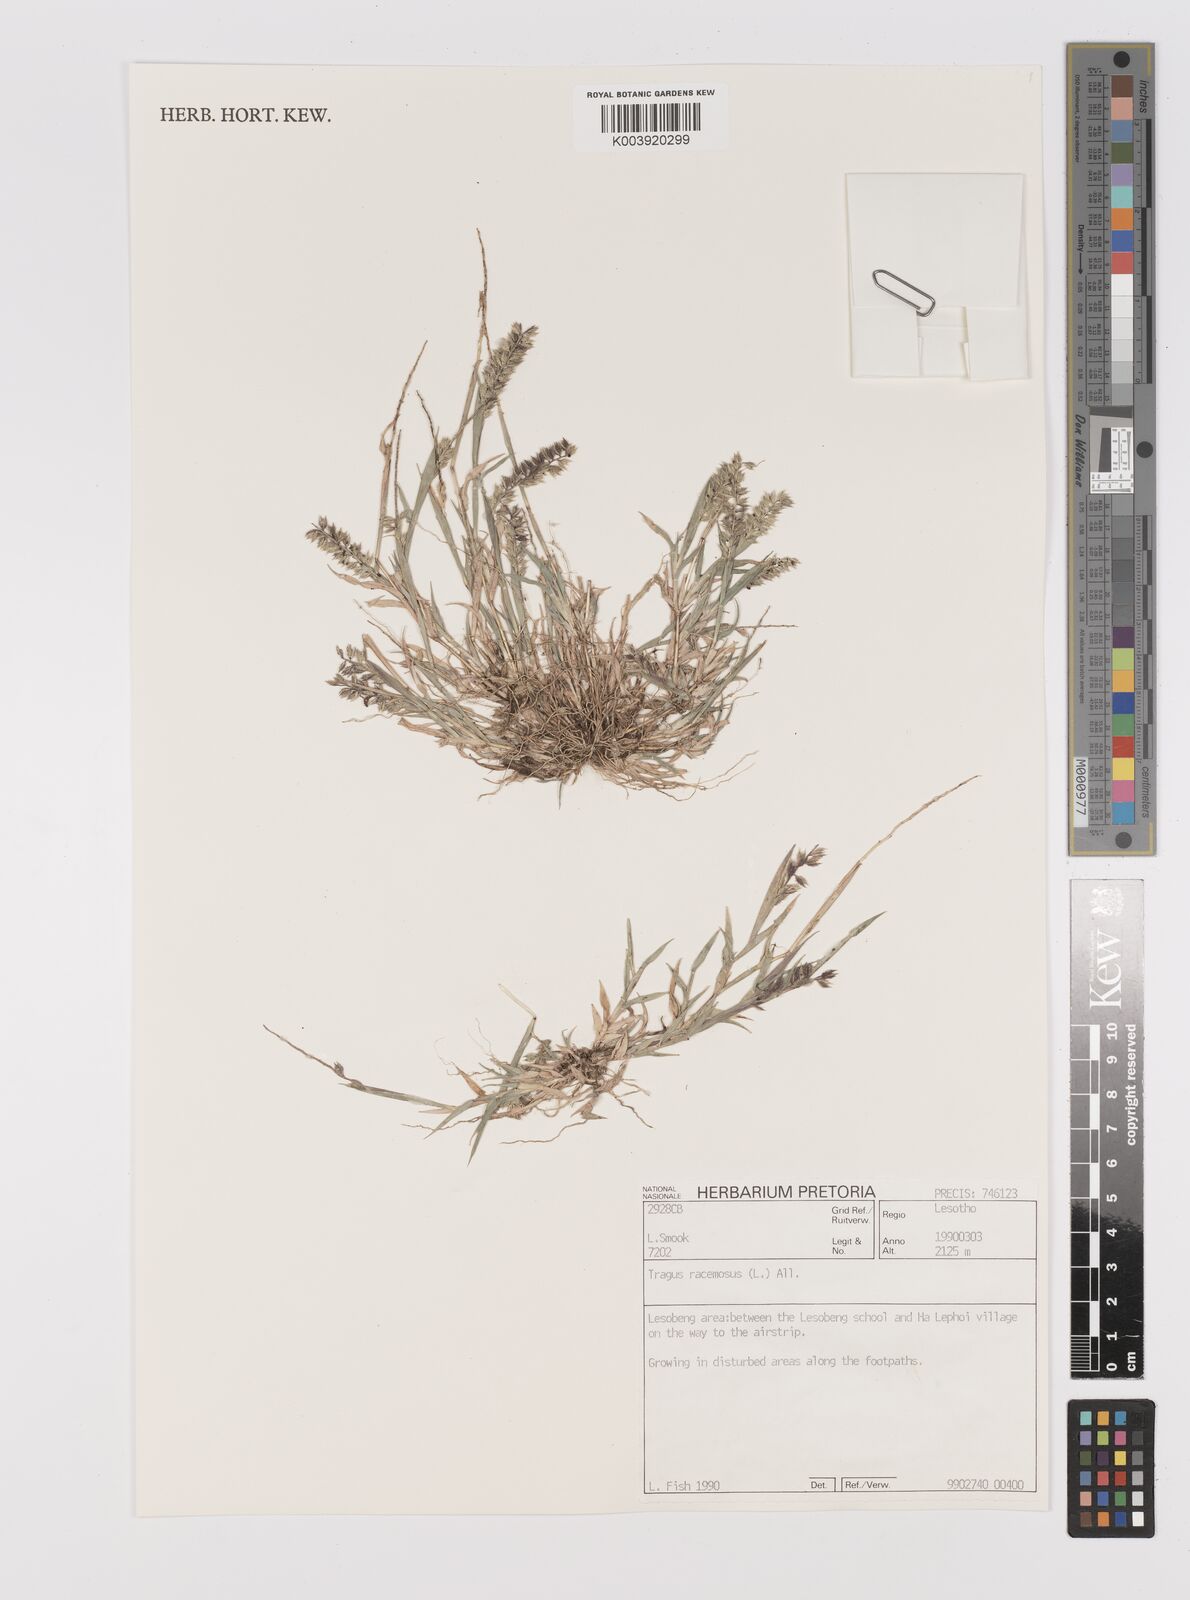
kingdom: Plantae
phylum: Tracheophyta
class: Liliopsida
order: Poales
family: Poaceae
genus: Tragus
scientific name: Tragus racemosus
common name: European bur-grass
